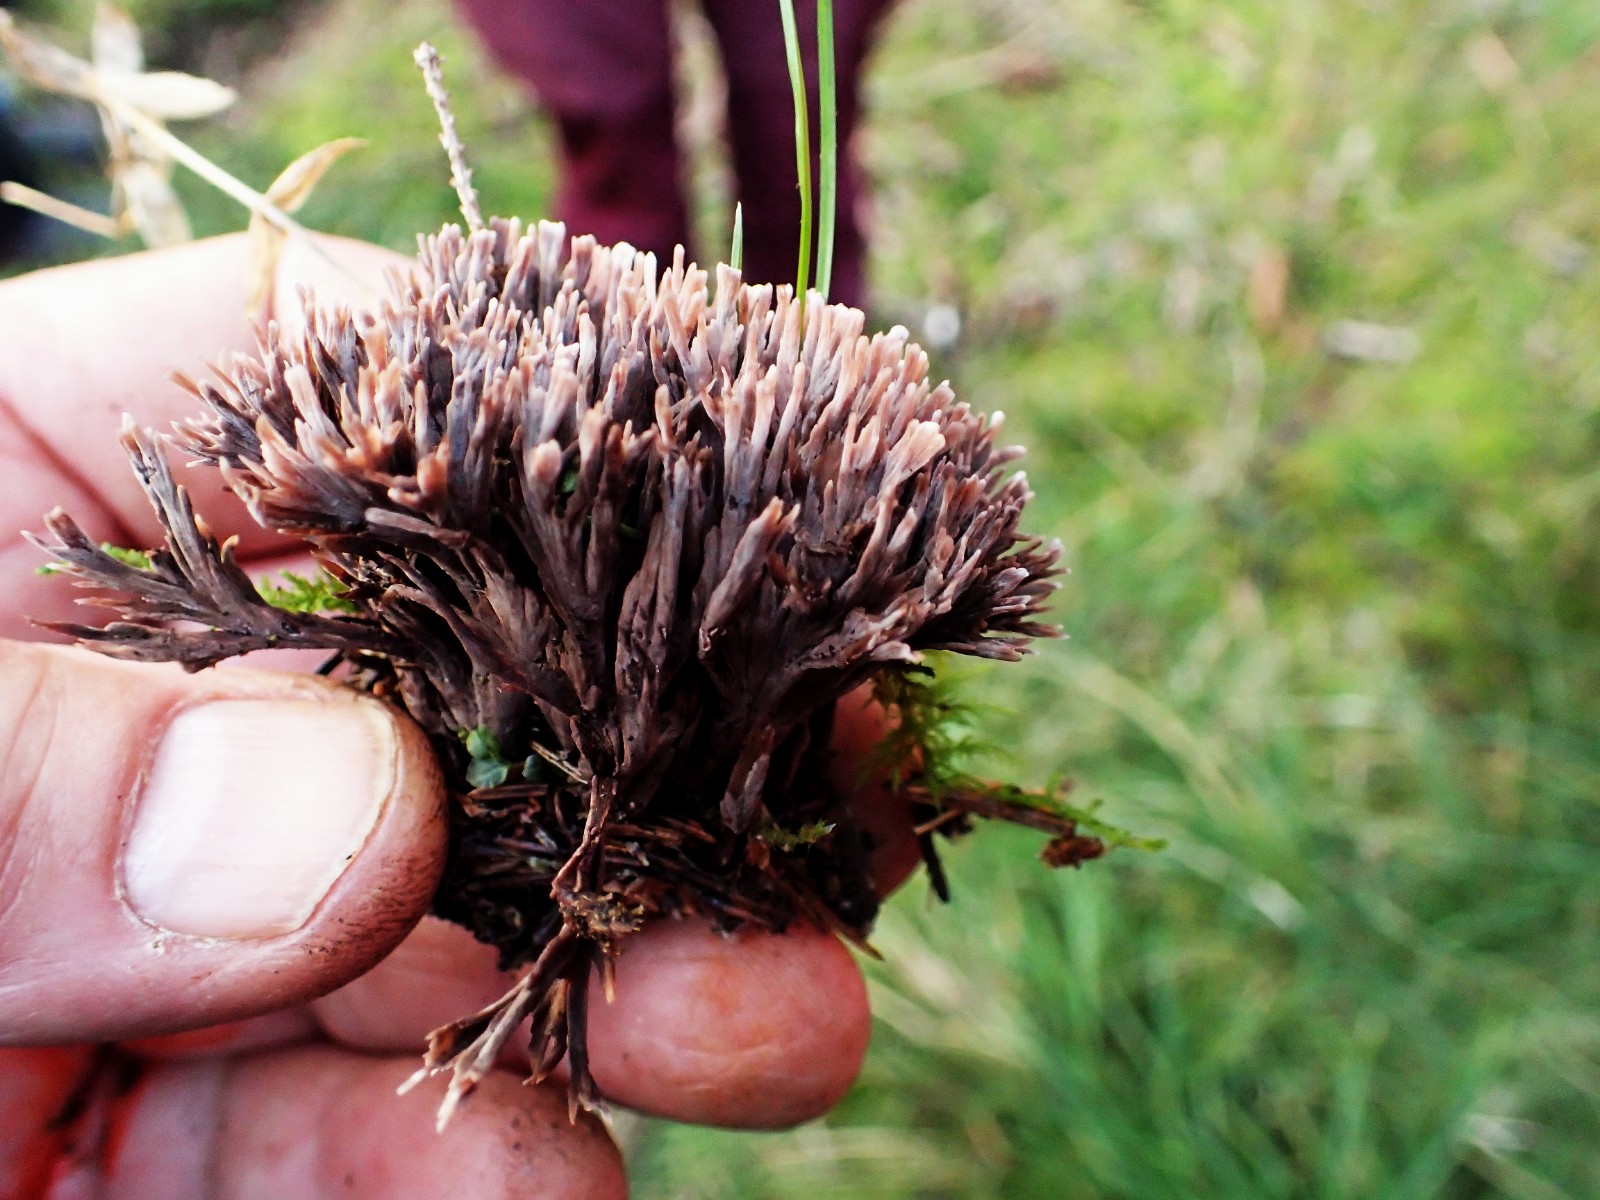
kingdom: Fungi
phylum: Basidiomycota
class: Agaricomycetes
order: Thelephorales
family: Thelephoraceae
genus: Thelephora
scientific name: Thelephora terrestris
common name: fliget frynsesvamp
